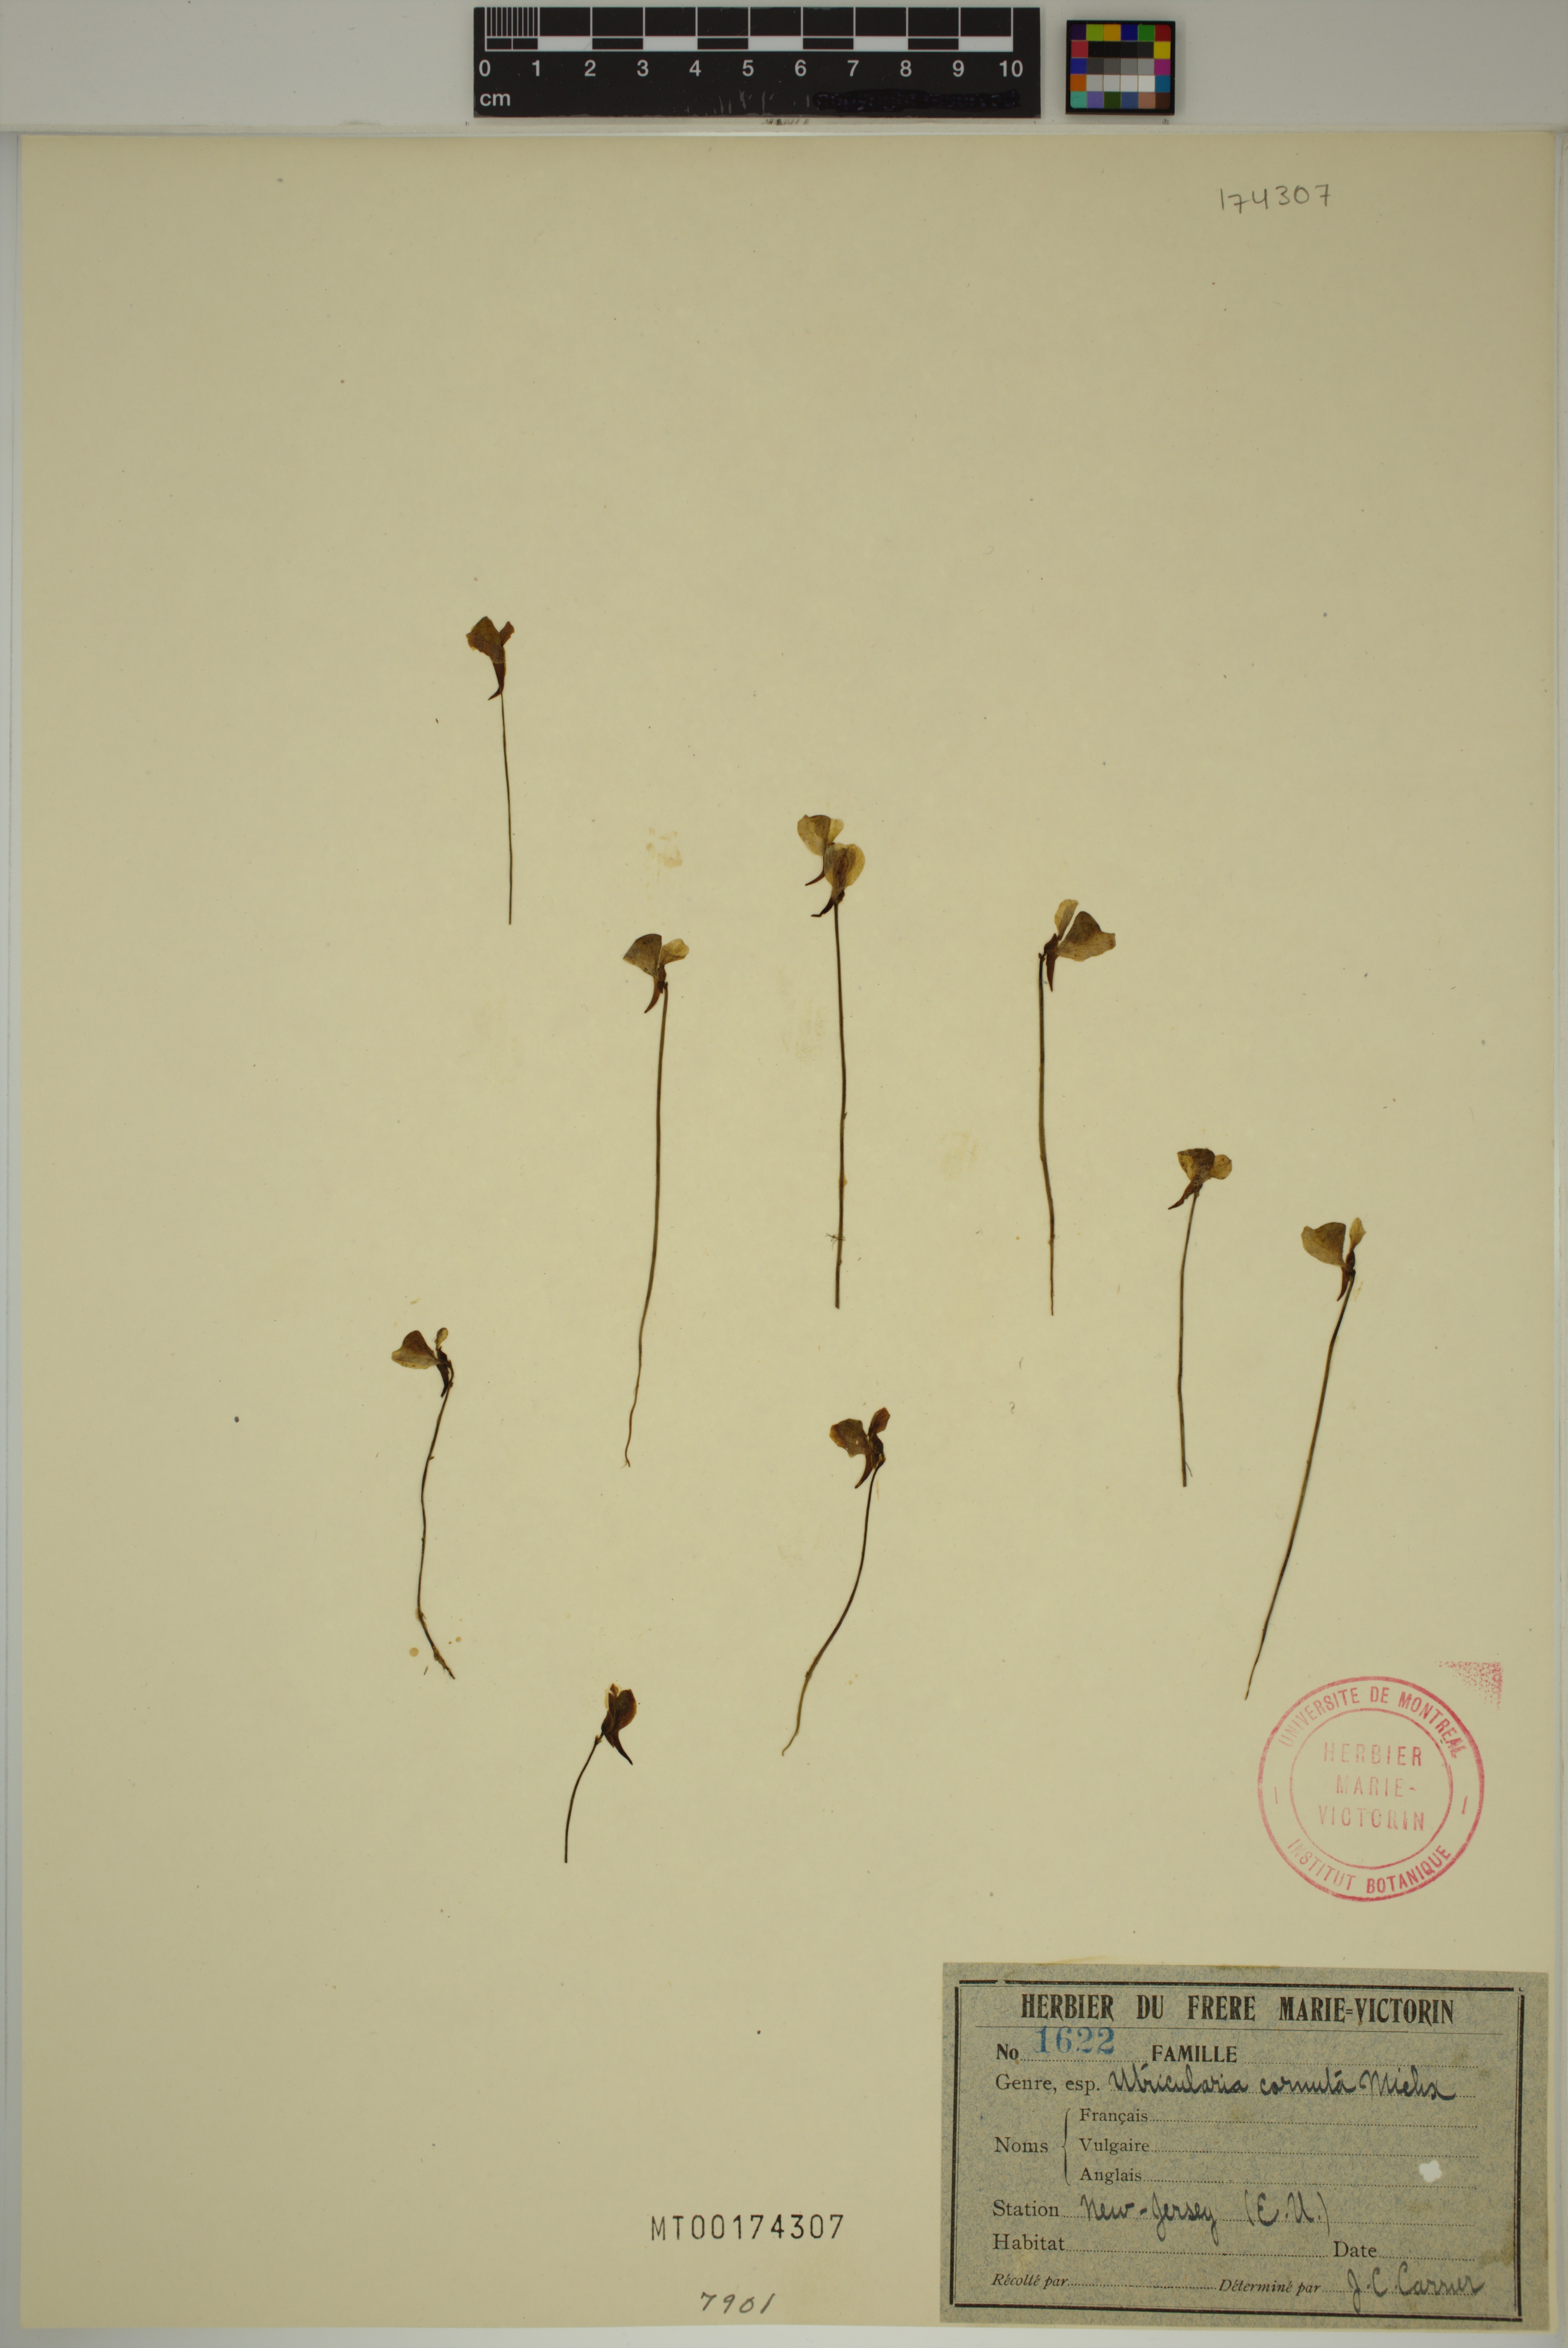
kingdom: Plantae
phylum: Tracheophyta
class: Magnoliopsida
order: Lamiales
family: Lentibulariaceae
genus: Utricularia
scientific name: Utricularia cornuta
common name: Horned bladderwort
